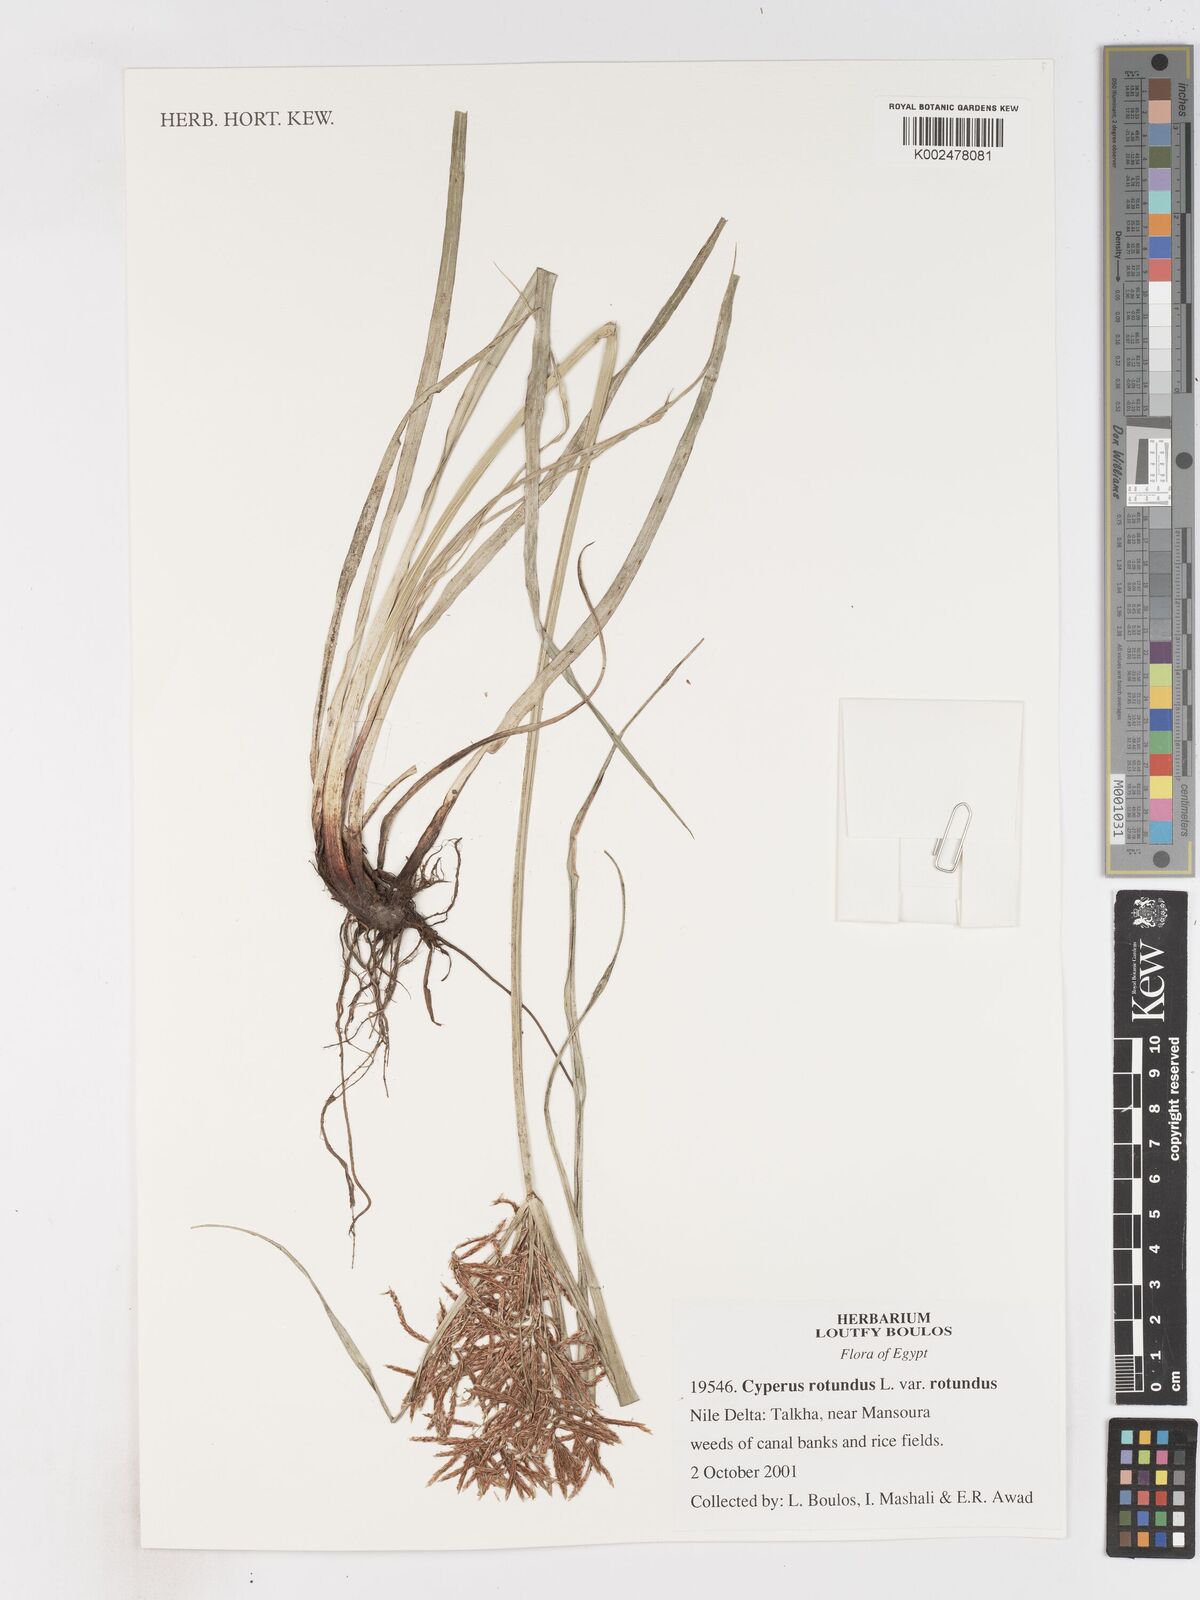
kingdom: Plantae
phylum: Tracheophyta
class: Liliopsida
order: Poales
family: Cyperaceae
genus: Cyperus
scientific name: Cyperus rotundus
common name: Nutgrass
